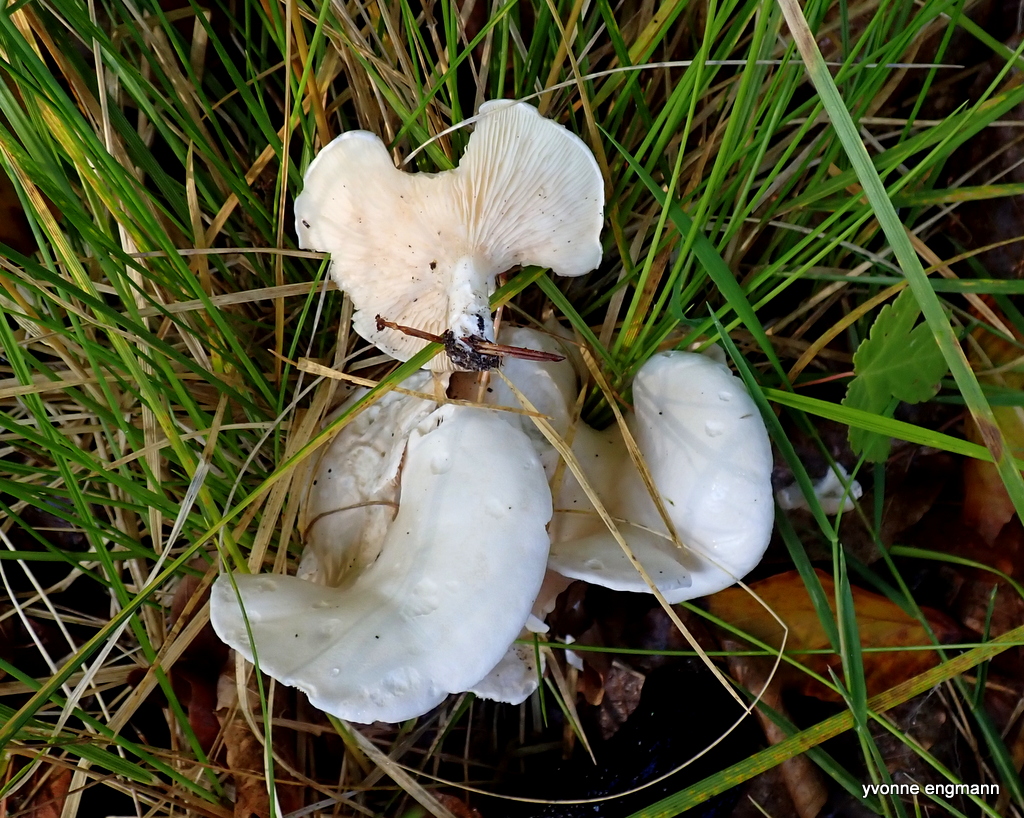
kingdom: Fungi
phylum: Basidiomycota
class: Agaricomycetes
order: Agaricales
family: Entolomataceae
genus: Clitopilus
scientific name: Clitopilus prunulus
